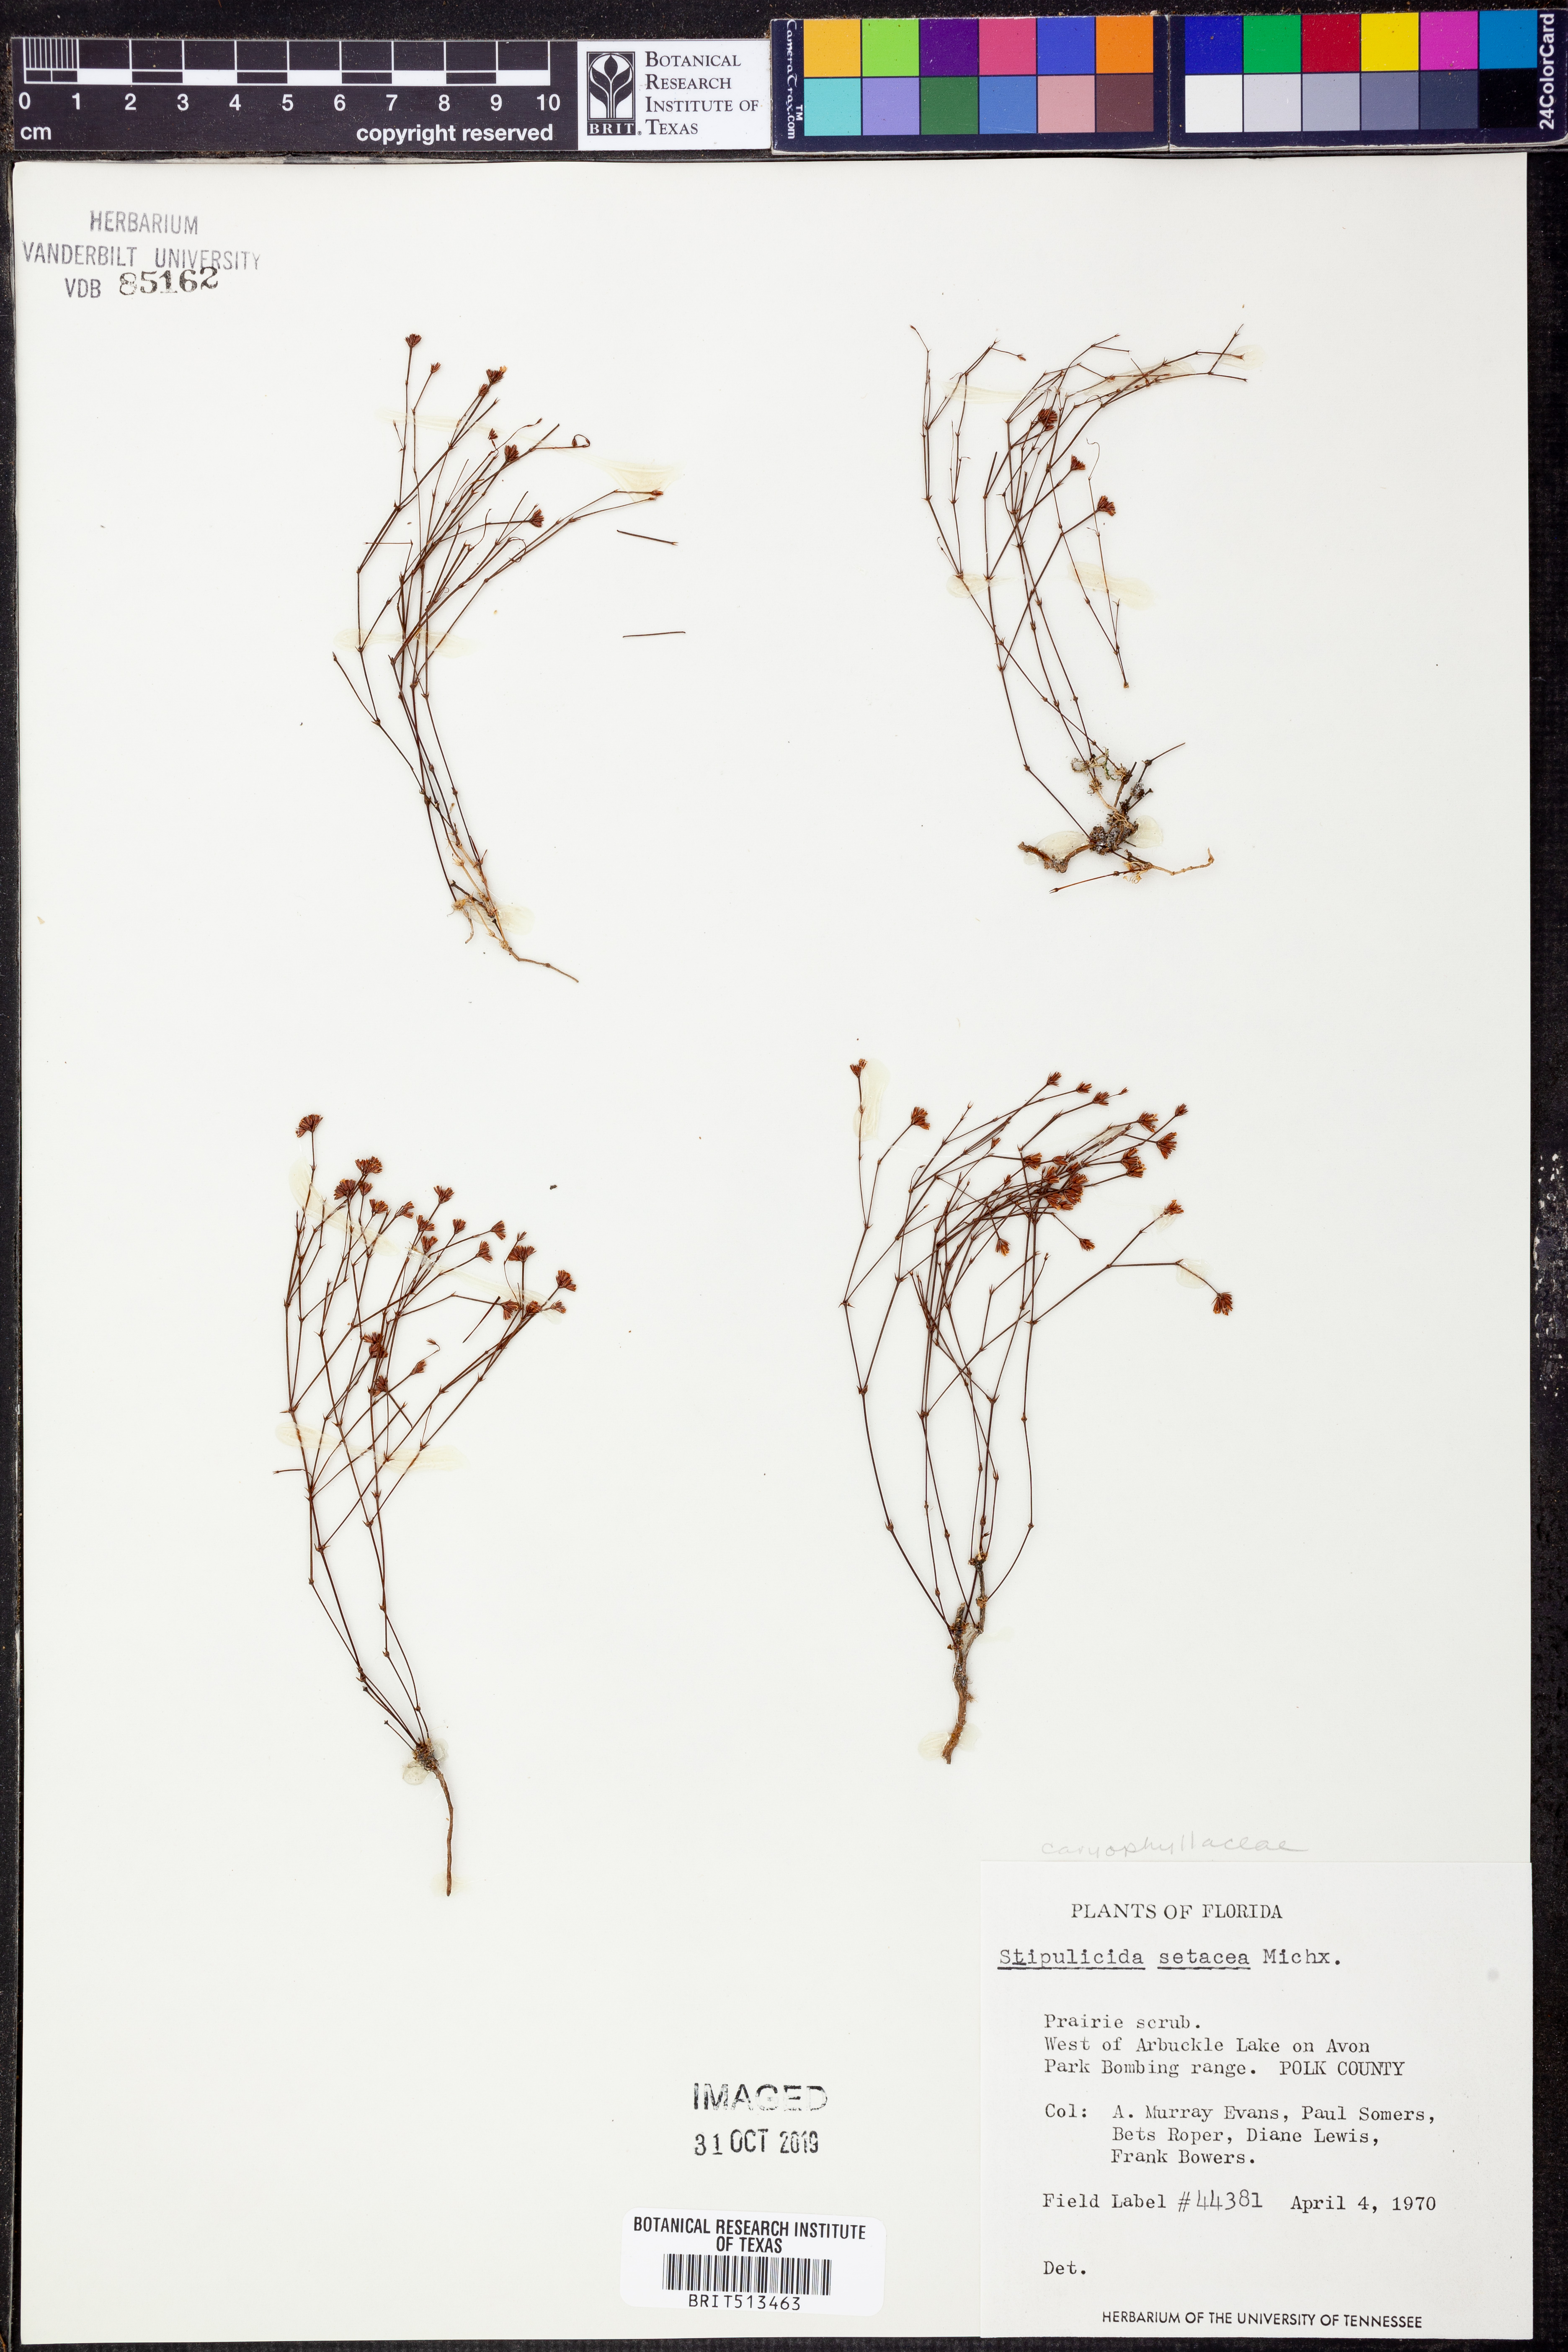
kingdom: Plantae
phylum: Tracheophyta
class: Magnoliopsida
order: Caryophyllales
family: Caryophyllaceae
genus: Stipulicida
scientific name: Stipulicida setacea
